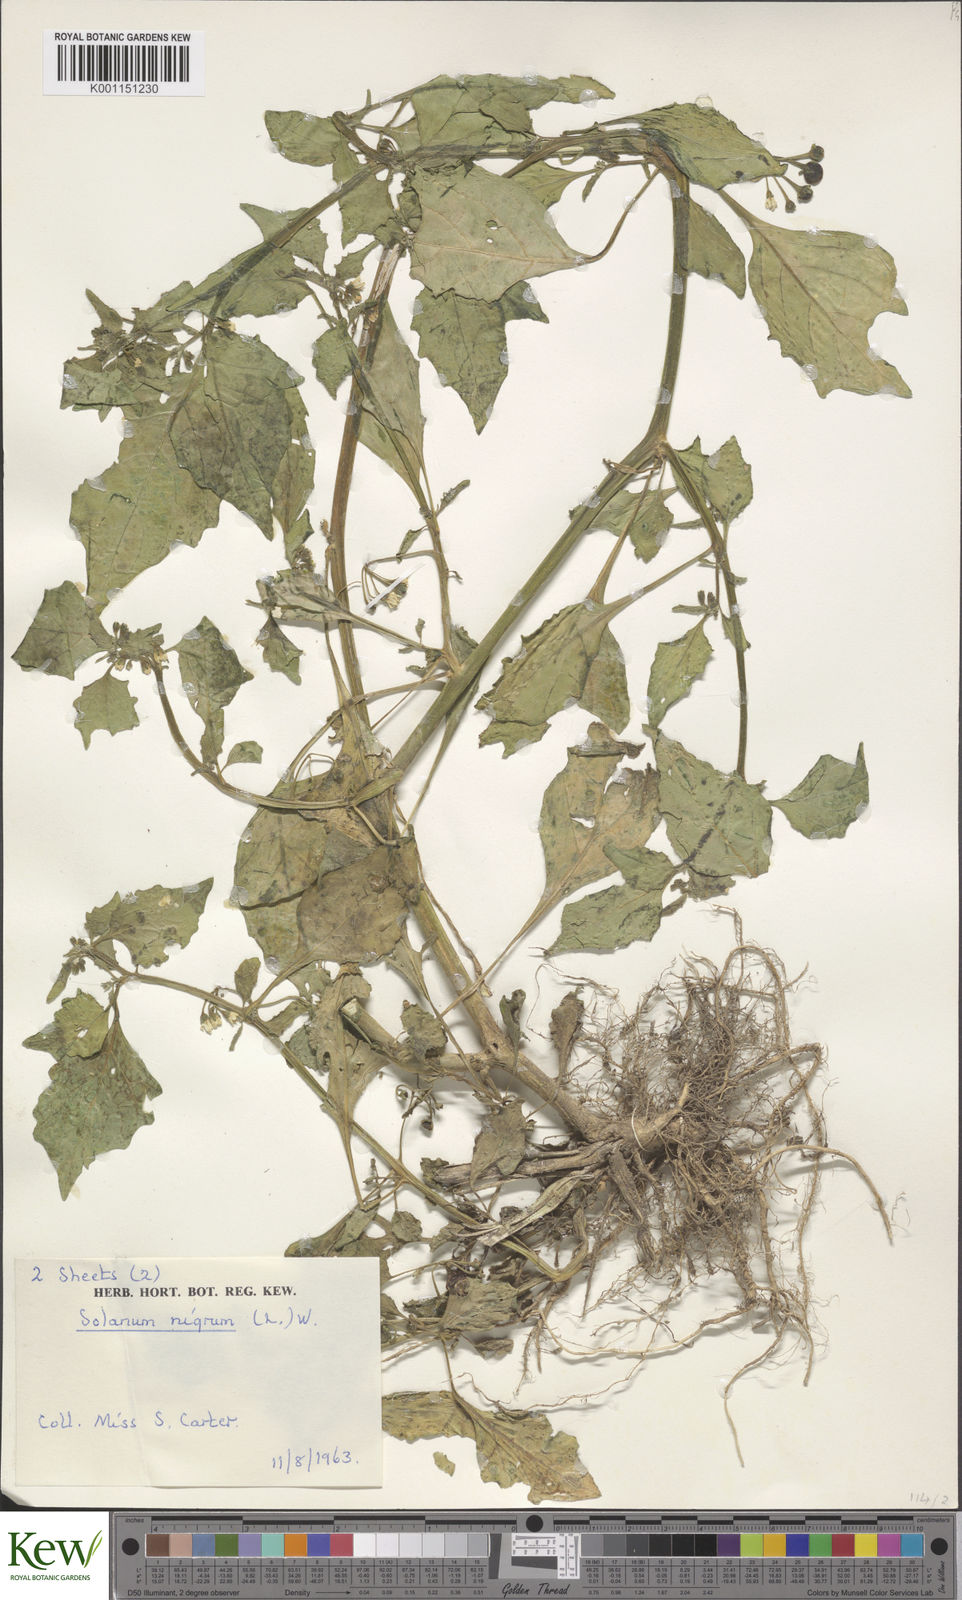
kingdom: Plantae
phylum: Tracheophyta
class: Magnoliopsida
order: Solanales
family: Solanaceae
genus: Solanum
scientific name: Solanum nigrum
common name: Black nightshade
